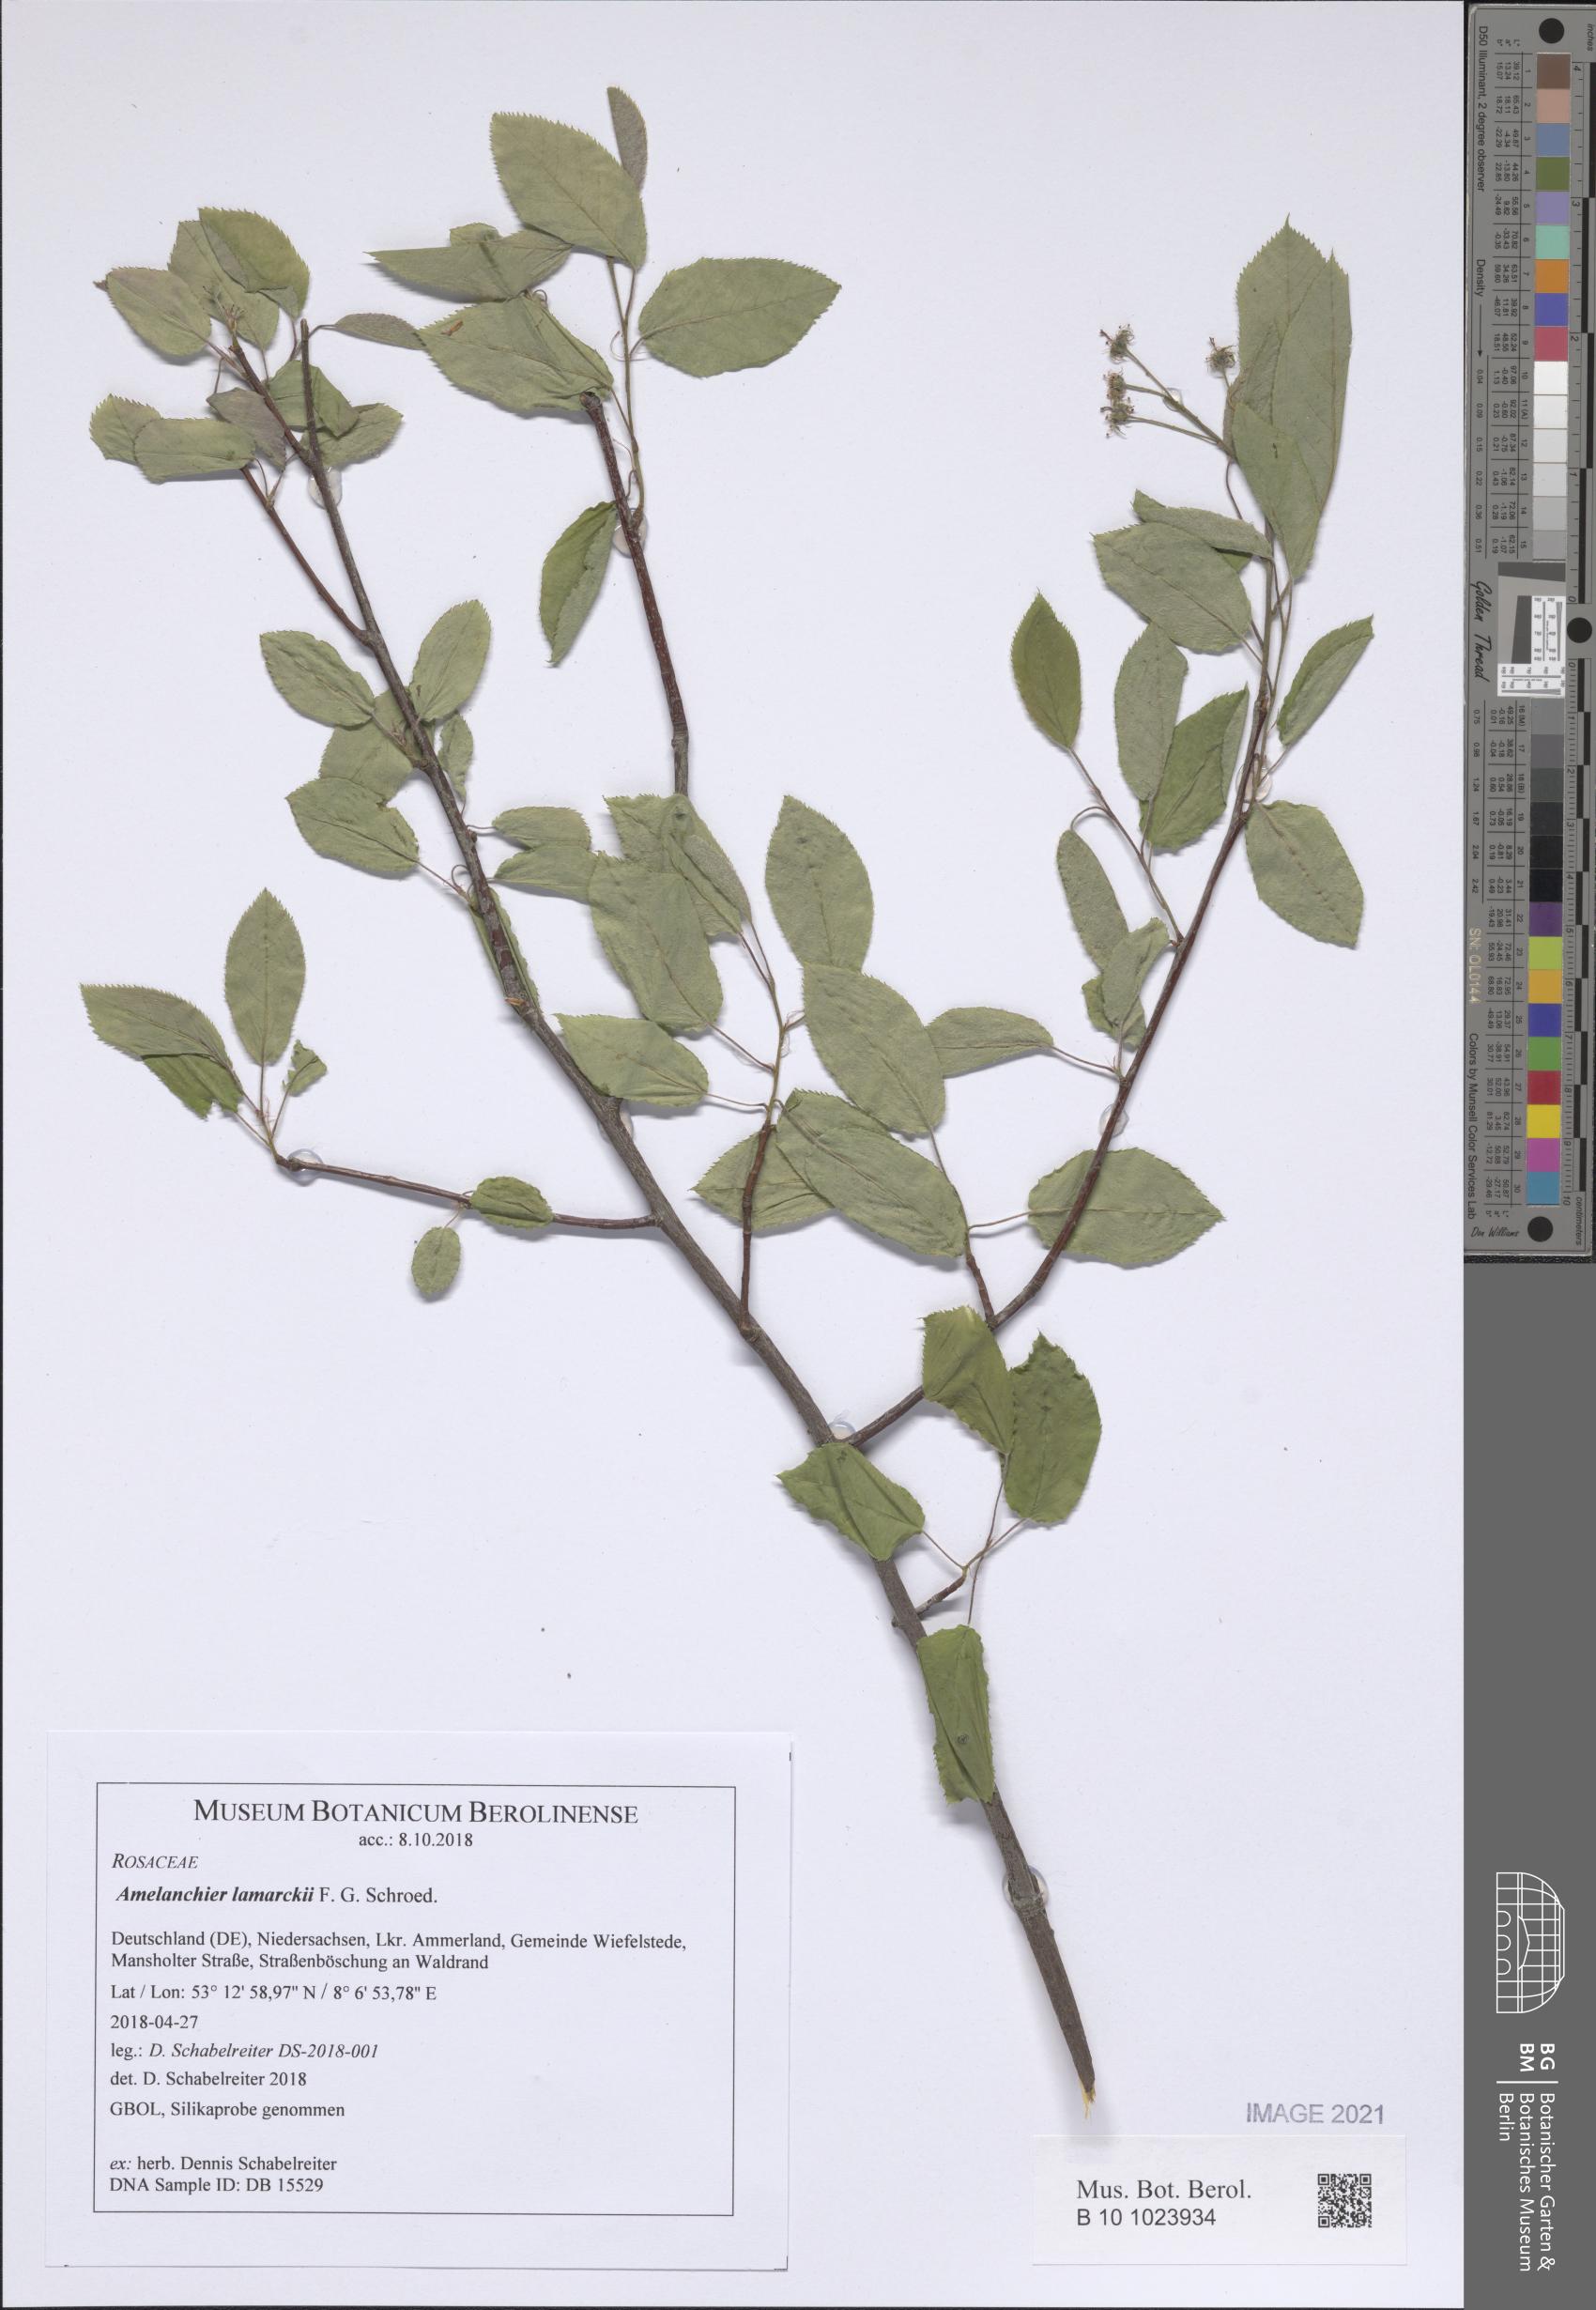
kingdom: Plantae
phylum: Tracheophyta
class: Magnoliopsida
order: Rosales
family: Rosaceae
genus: Amelanchier
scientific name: Amelanchier lamarckii
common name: Juneberry
